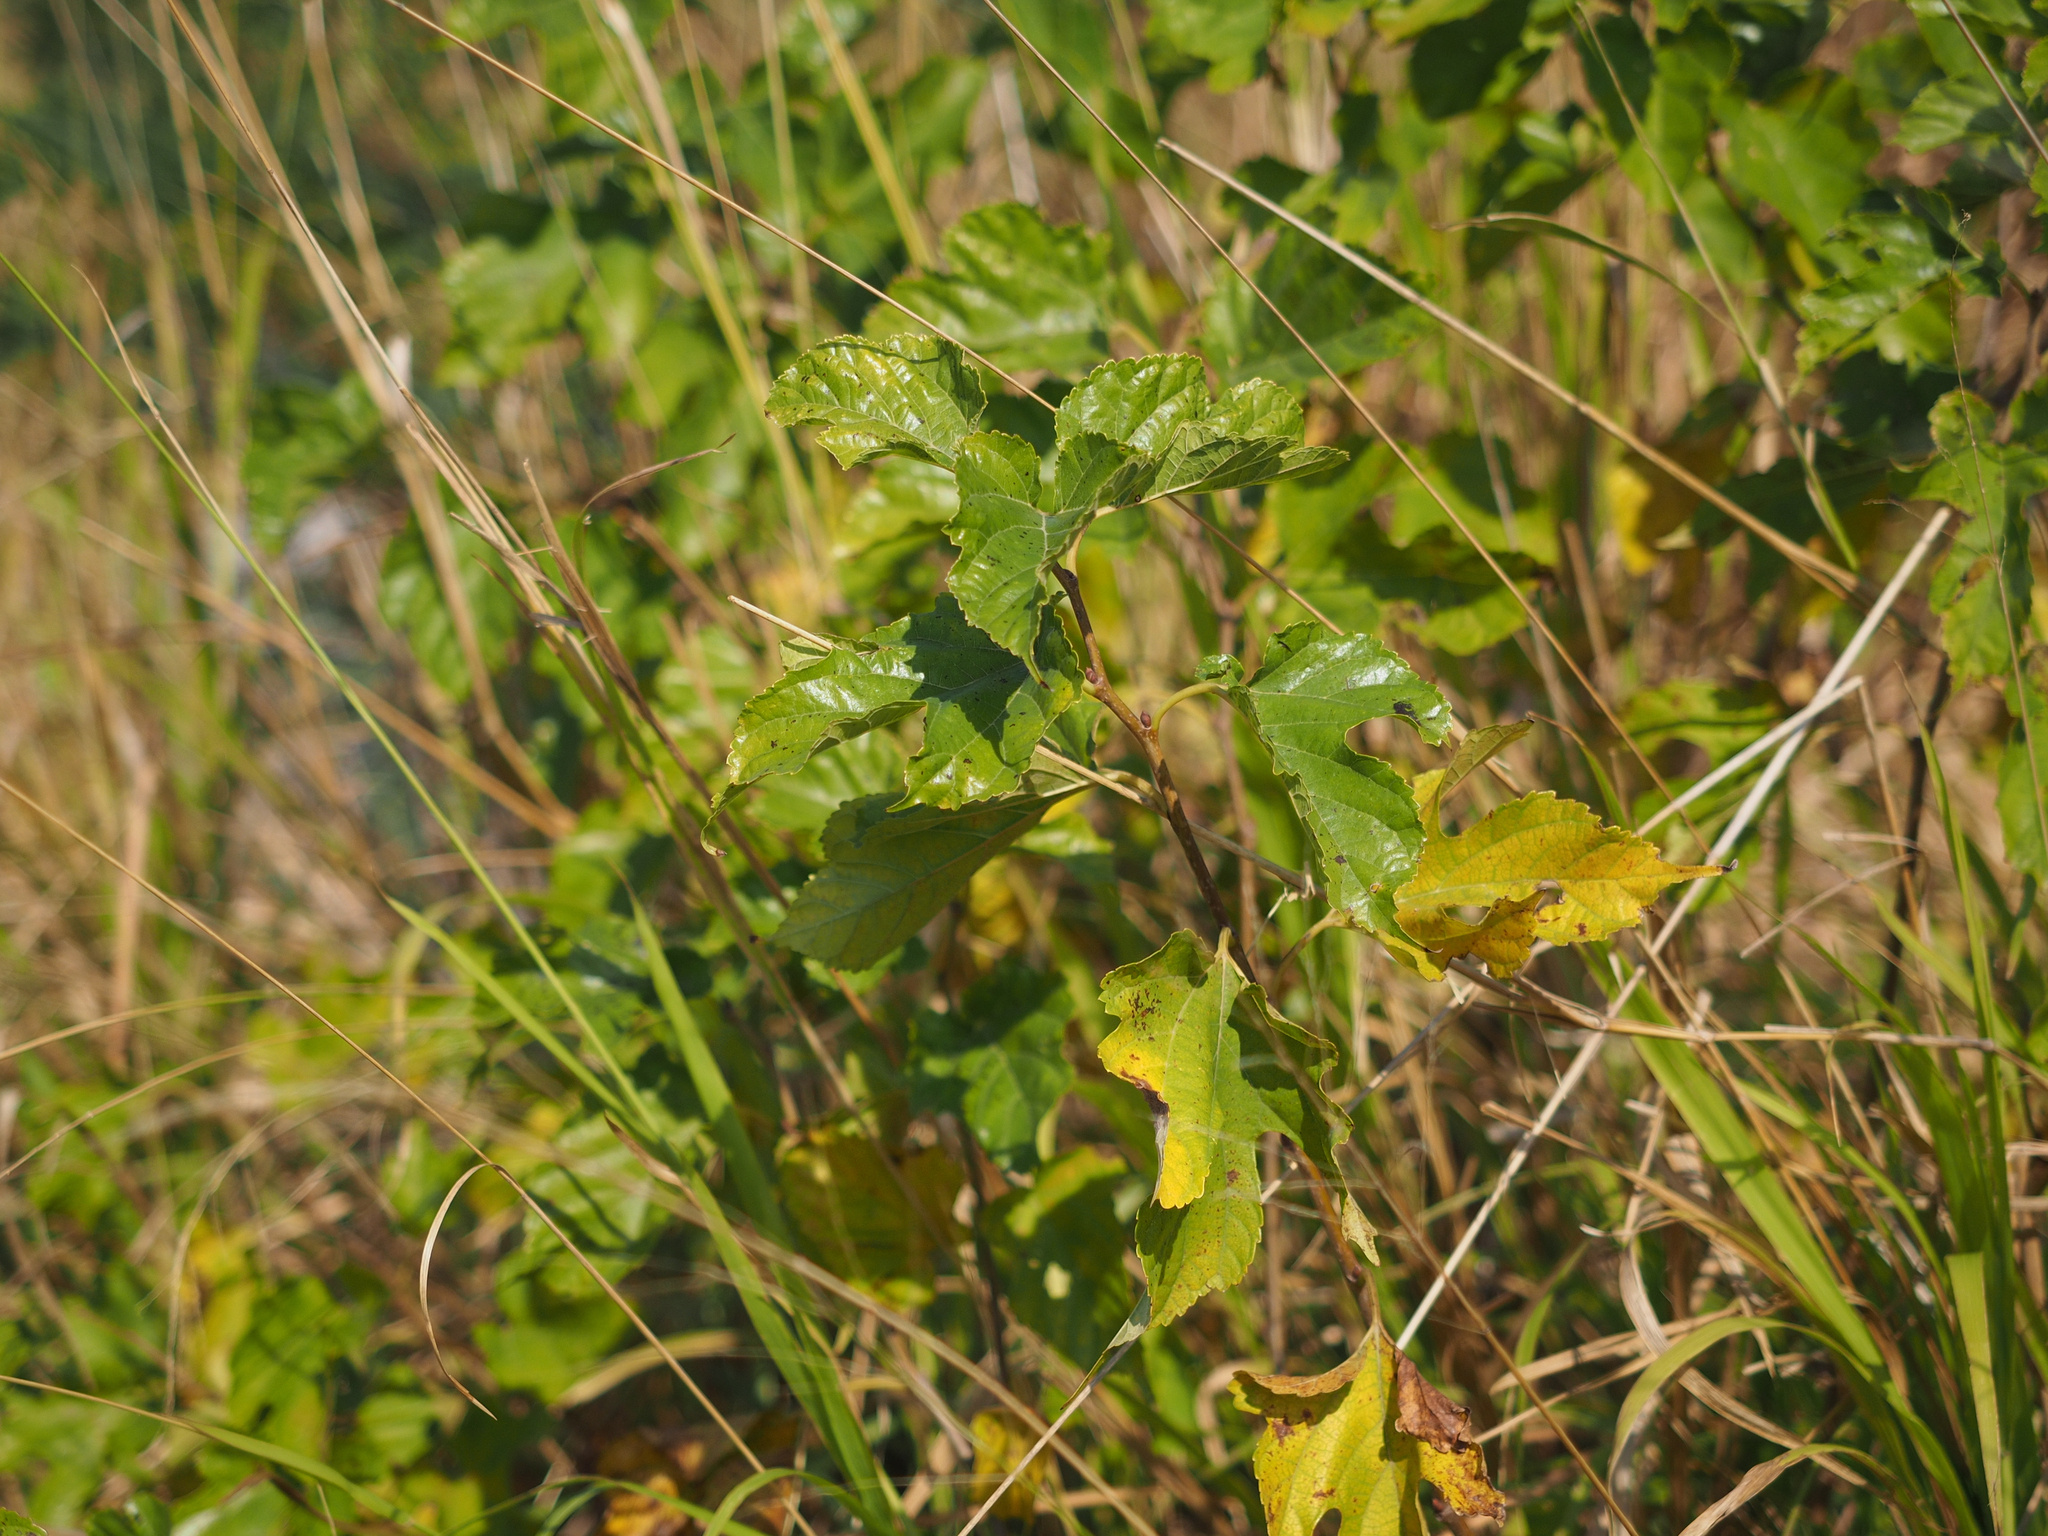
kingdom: Plantae
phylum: Tracheophyta
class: Magnoliopsida
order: Rosales
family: Moraceae
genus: Broussonetia
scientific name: Broussonetia papyrifera
